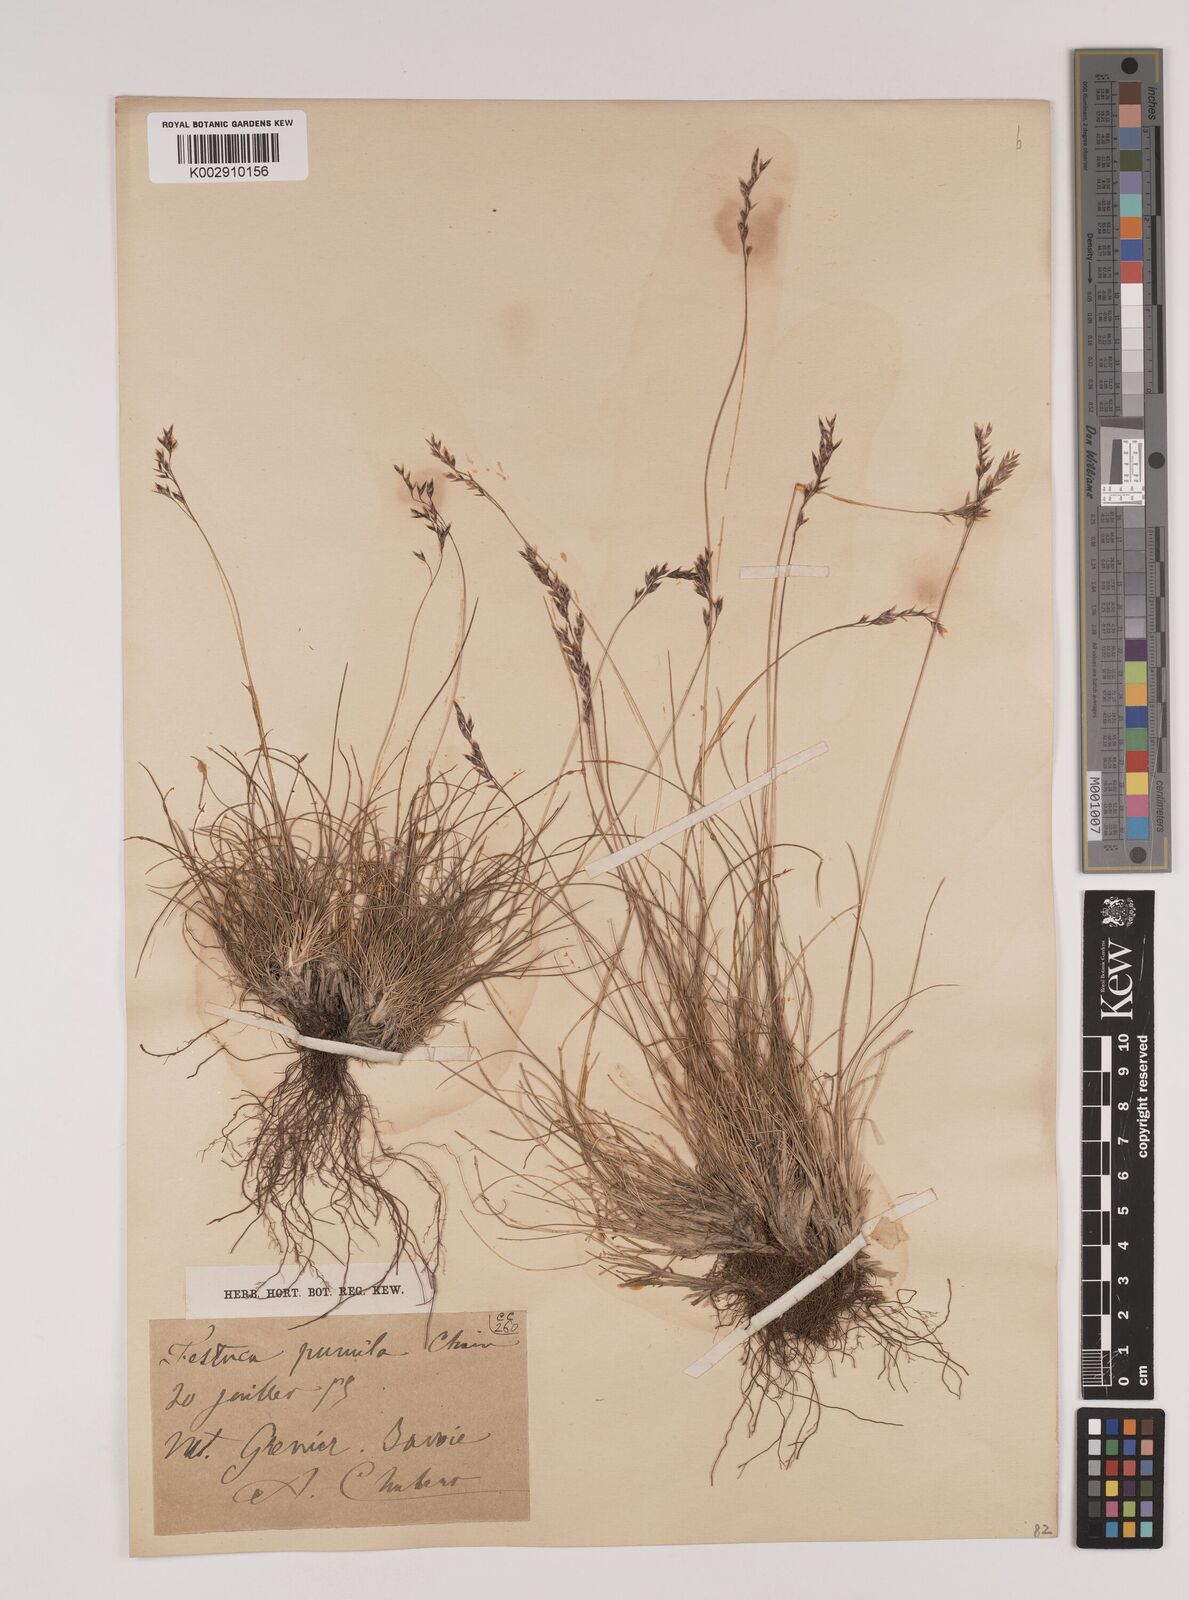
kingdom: Plantae
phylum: Tracheophyta
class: Liliopsida
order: Poales
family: Poaceae
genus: Festuca
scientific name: Festuca
